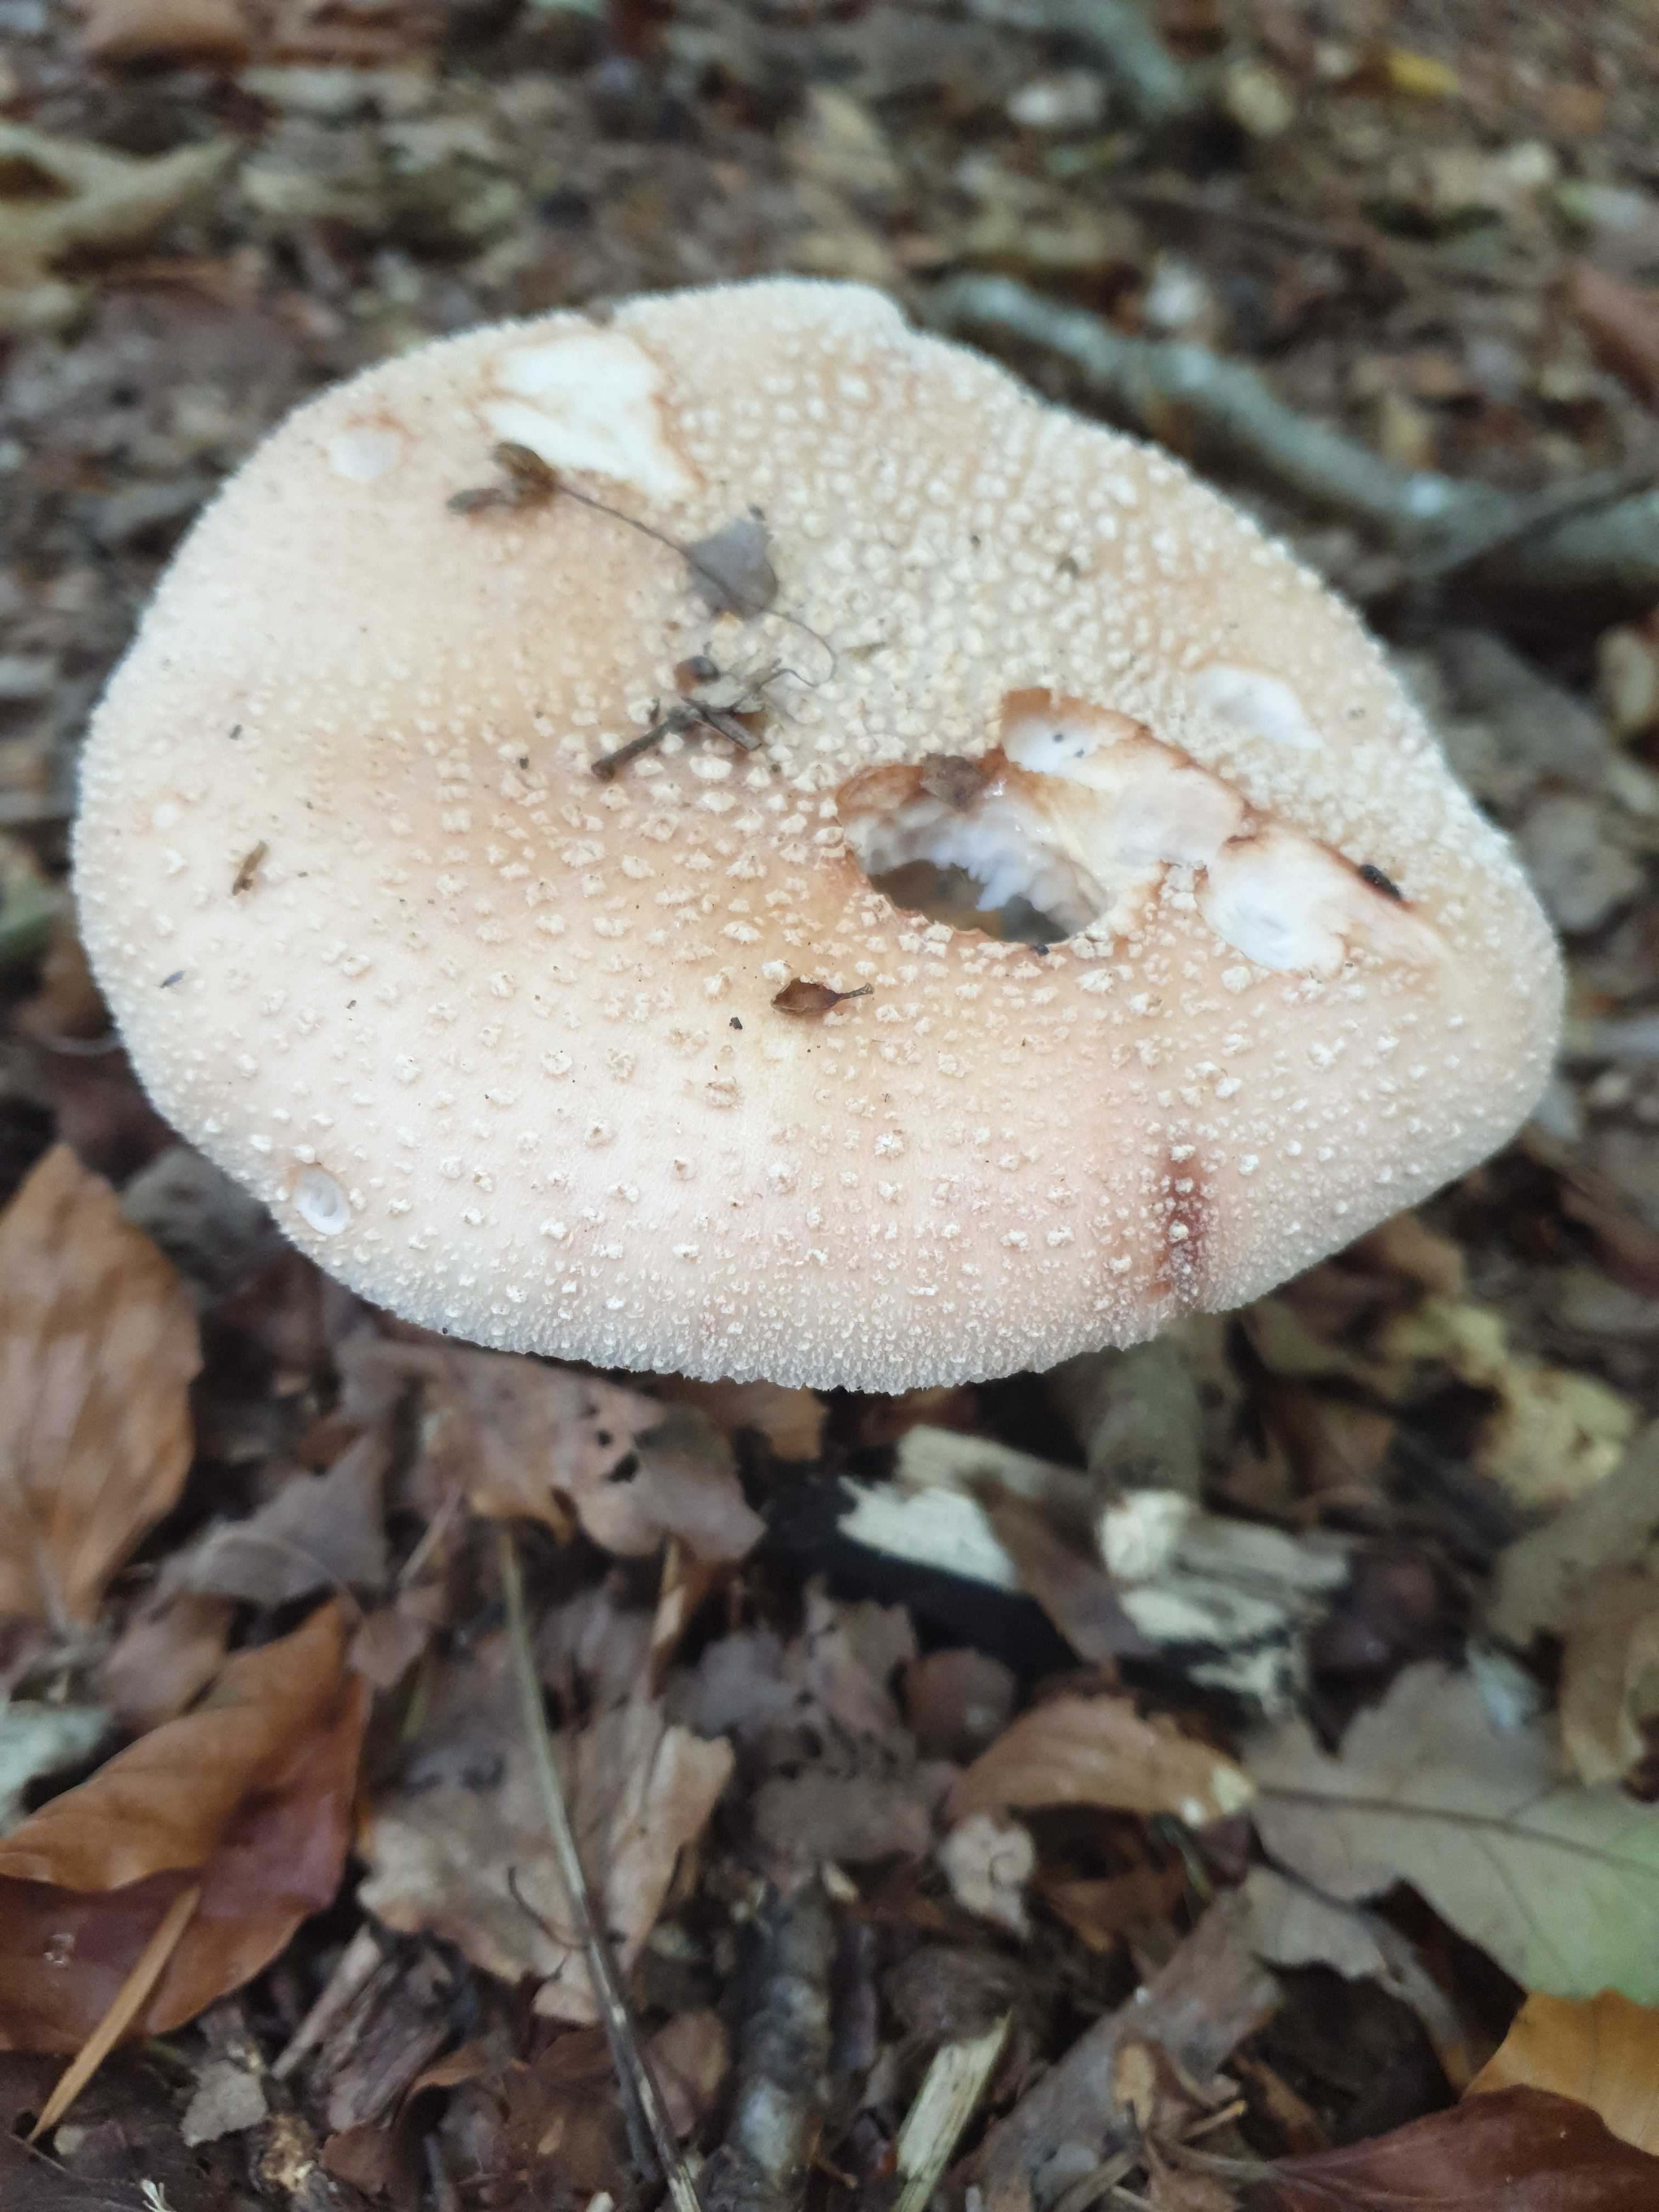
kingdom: Fungi
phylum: Basidiomycota
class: Agaricomycetes
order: Agaricales
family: Amanitaceae
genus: Amanita
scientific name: Amanita rubescens
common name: rødmende fluesvamp
